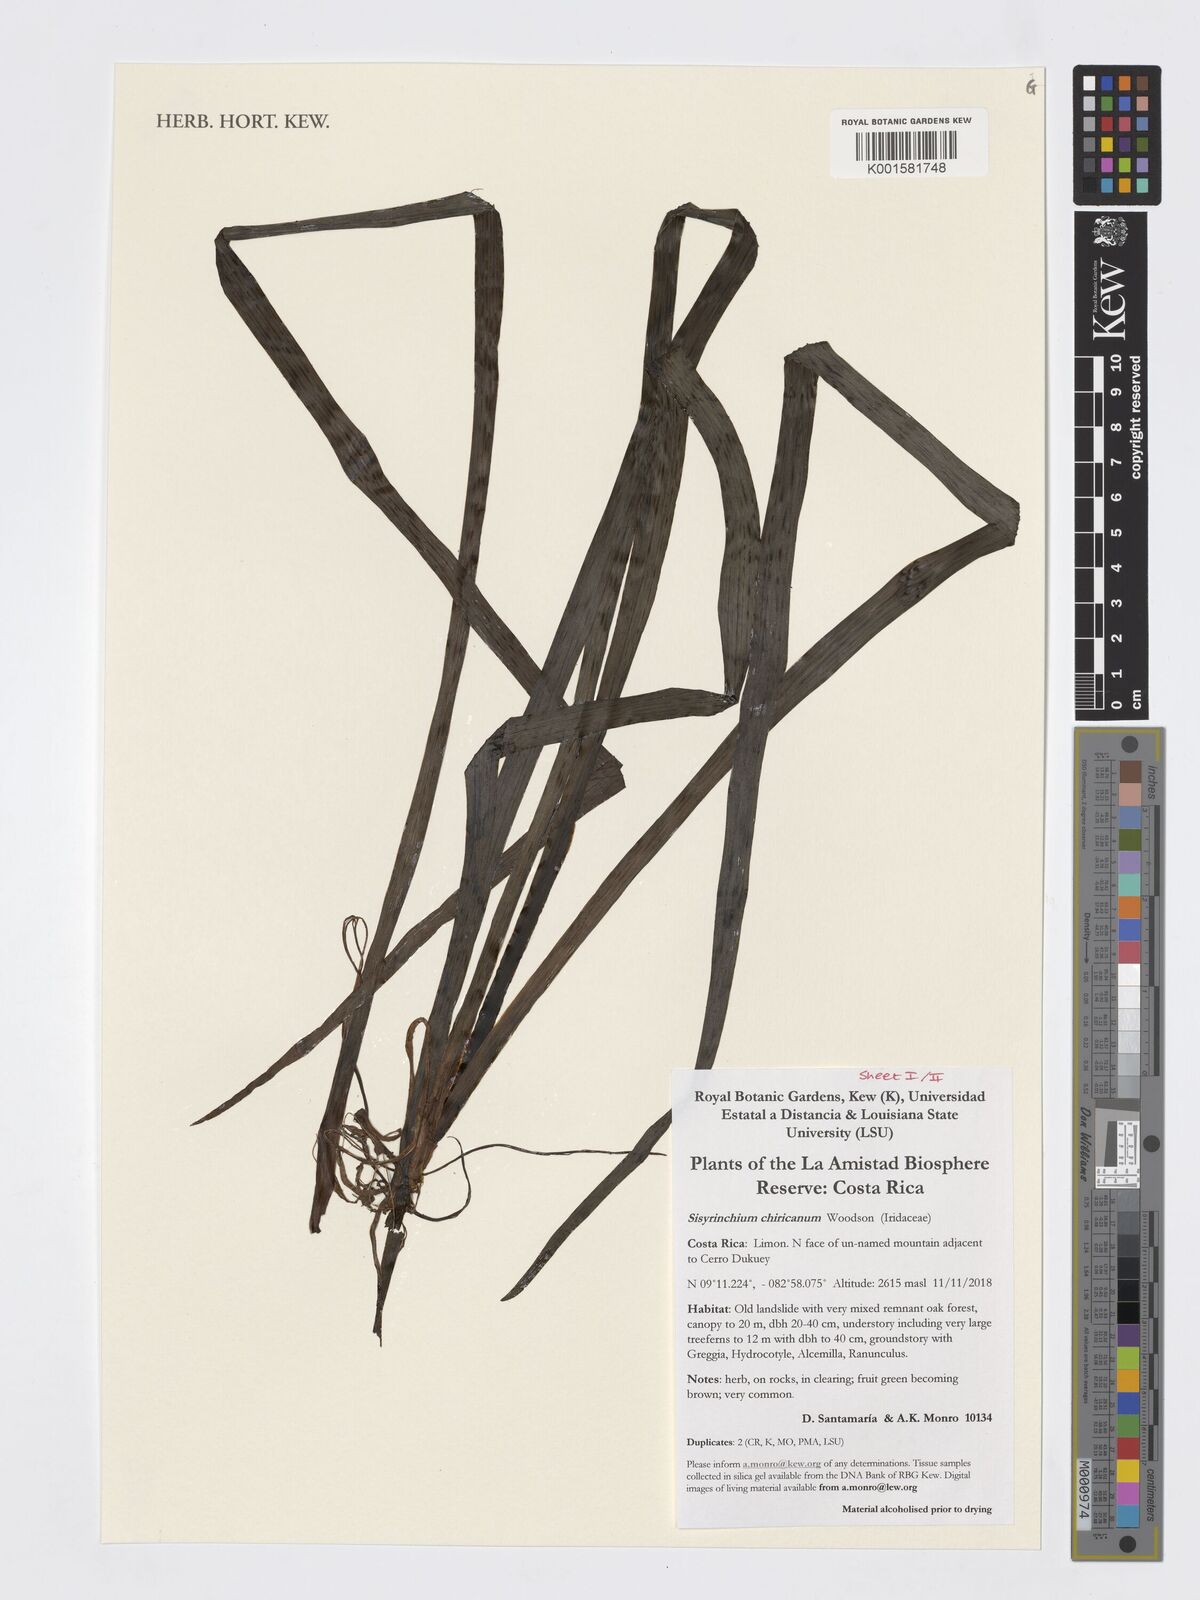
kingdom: Plantae
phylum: Tracheophyta
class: Liliopsida
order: Asparagales
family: Iridaceae
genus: Sisyrinchium
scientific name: Sisyrinchium chiricanum
